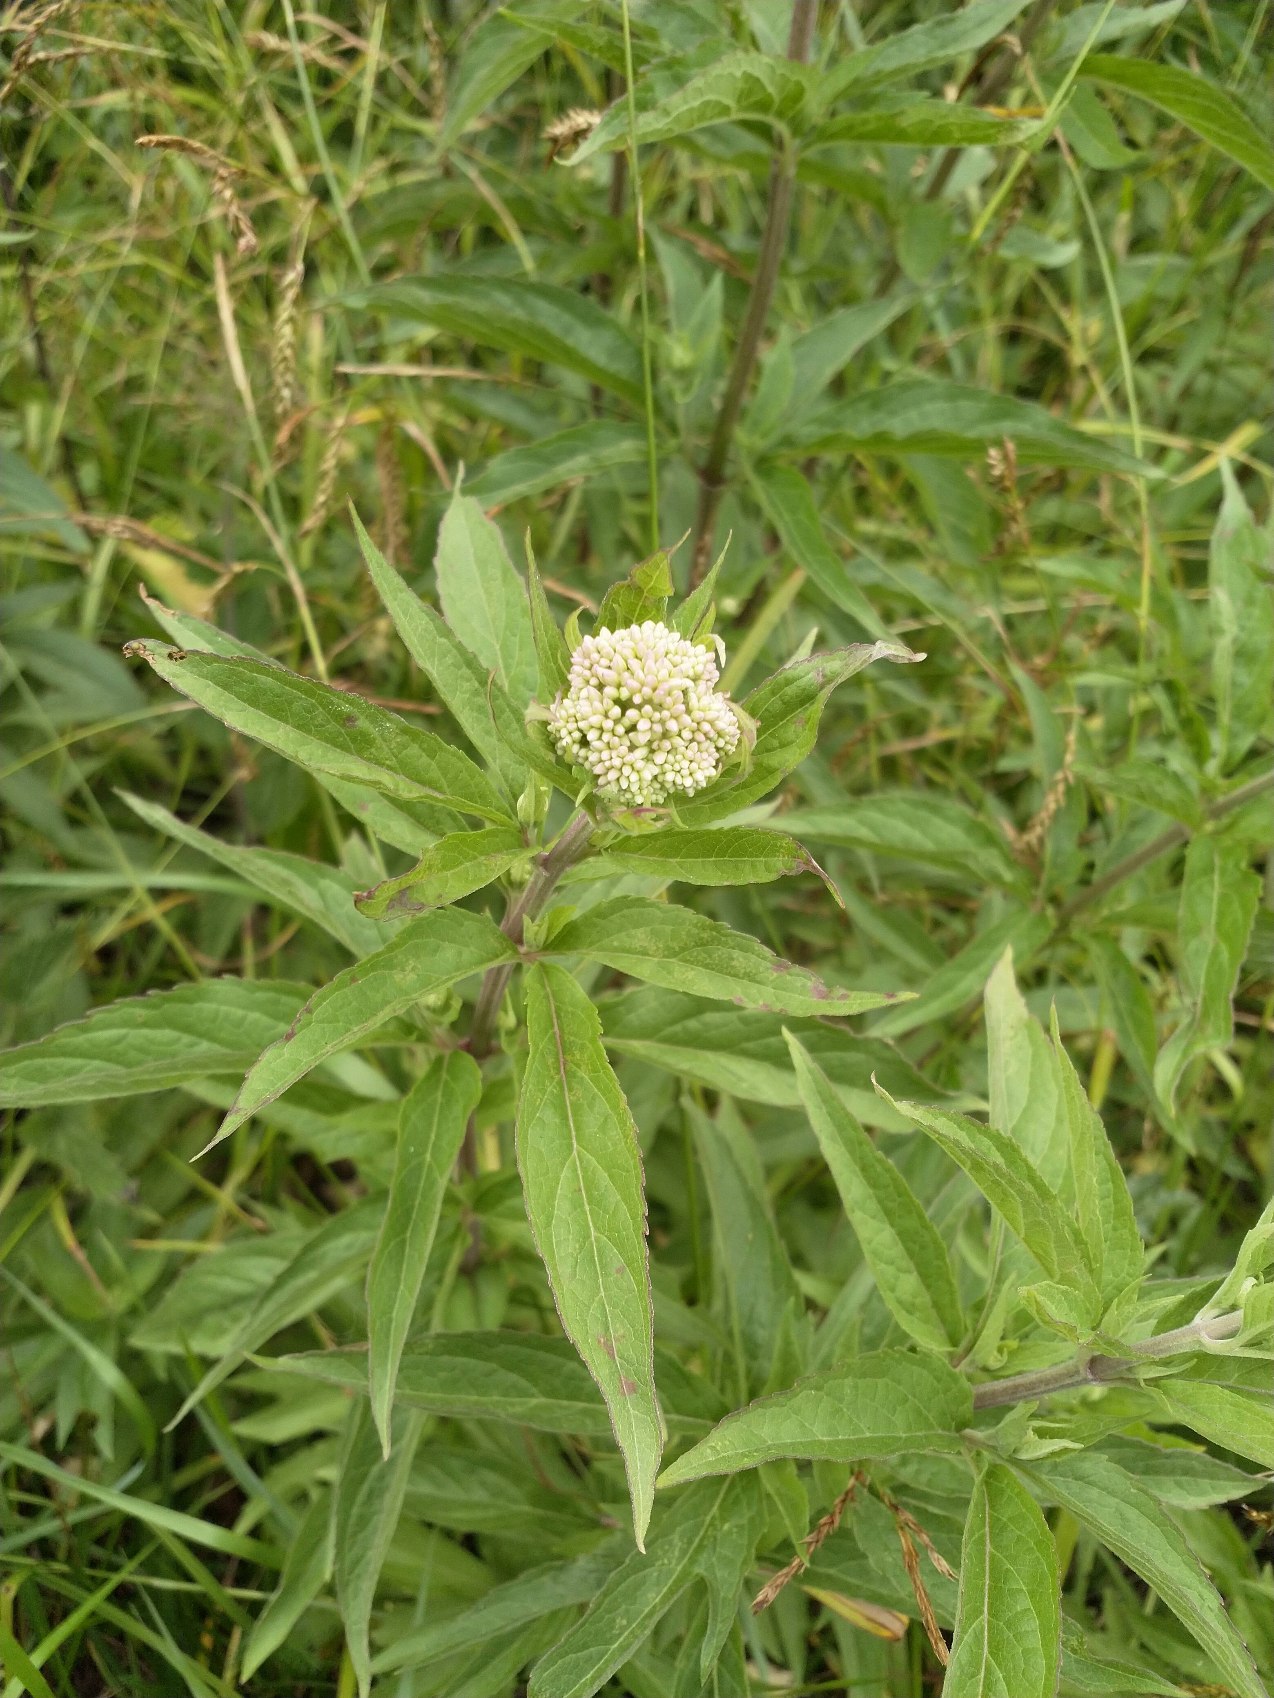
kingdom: Plantae
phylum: Tracheophyta
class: Magnoliopsida
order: Asterales
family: Asteraceae
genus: Eupatorium
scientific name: Eupatorium cannabinum
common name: Hjortetrøst
